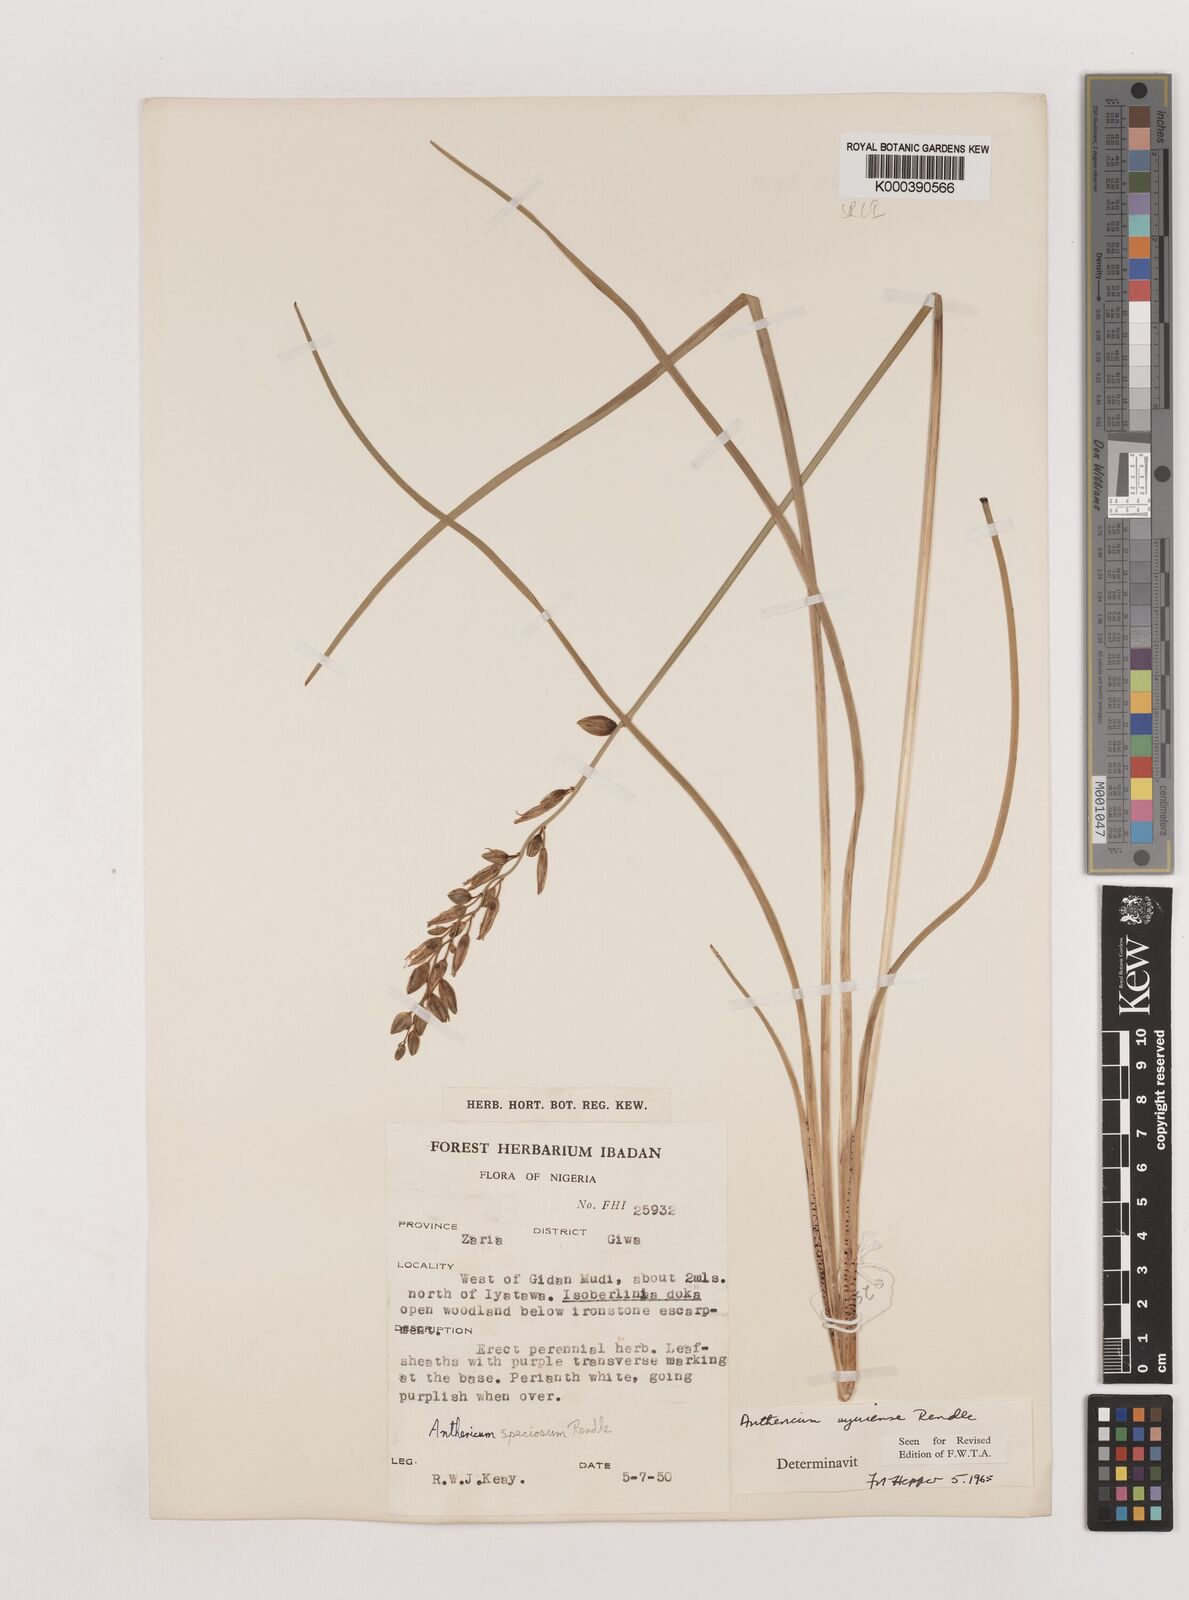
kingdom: Plantae
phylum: Tracheophyta
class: Liliopsida
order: Asparagales
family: Asparagaceae
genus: Chlorophytum
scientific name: Chlorophytum cameronii
